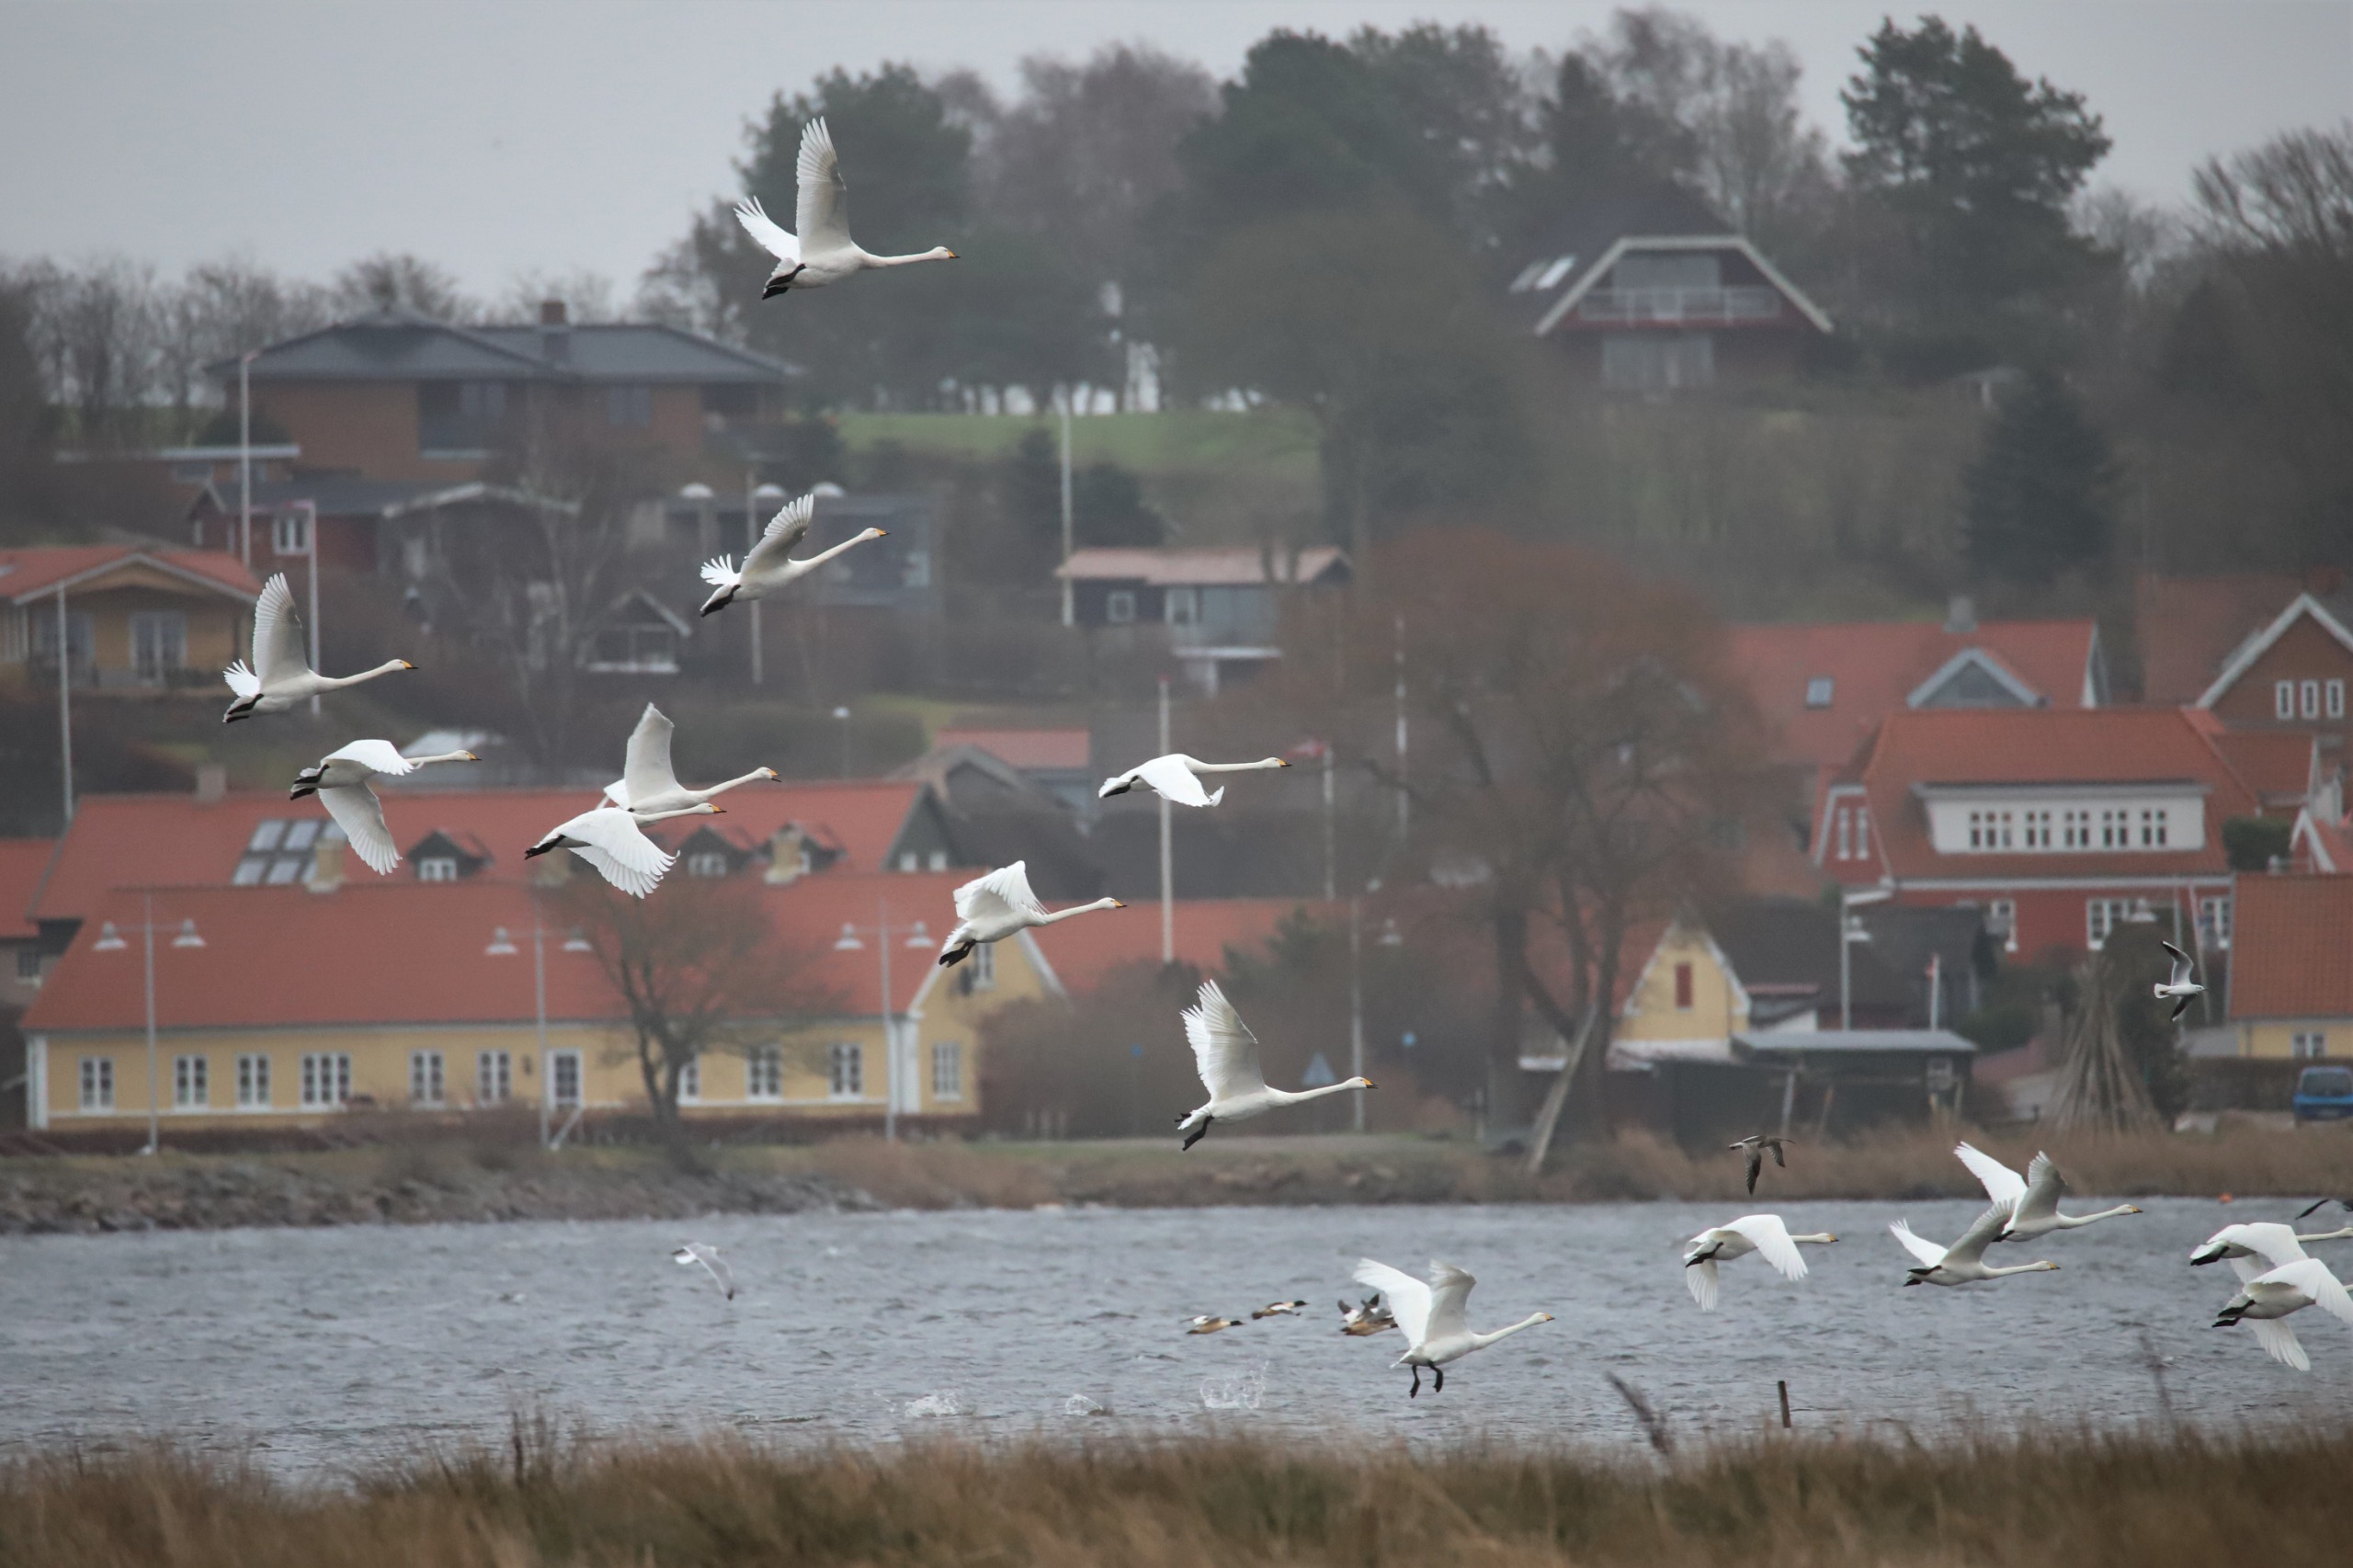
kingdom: Animalia
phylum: Chordata
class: Aves
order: Anseriformes
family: Anatidae
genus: Cygnus
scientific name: Cygnus cygnus
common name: Sangsvane
